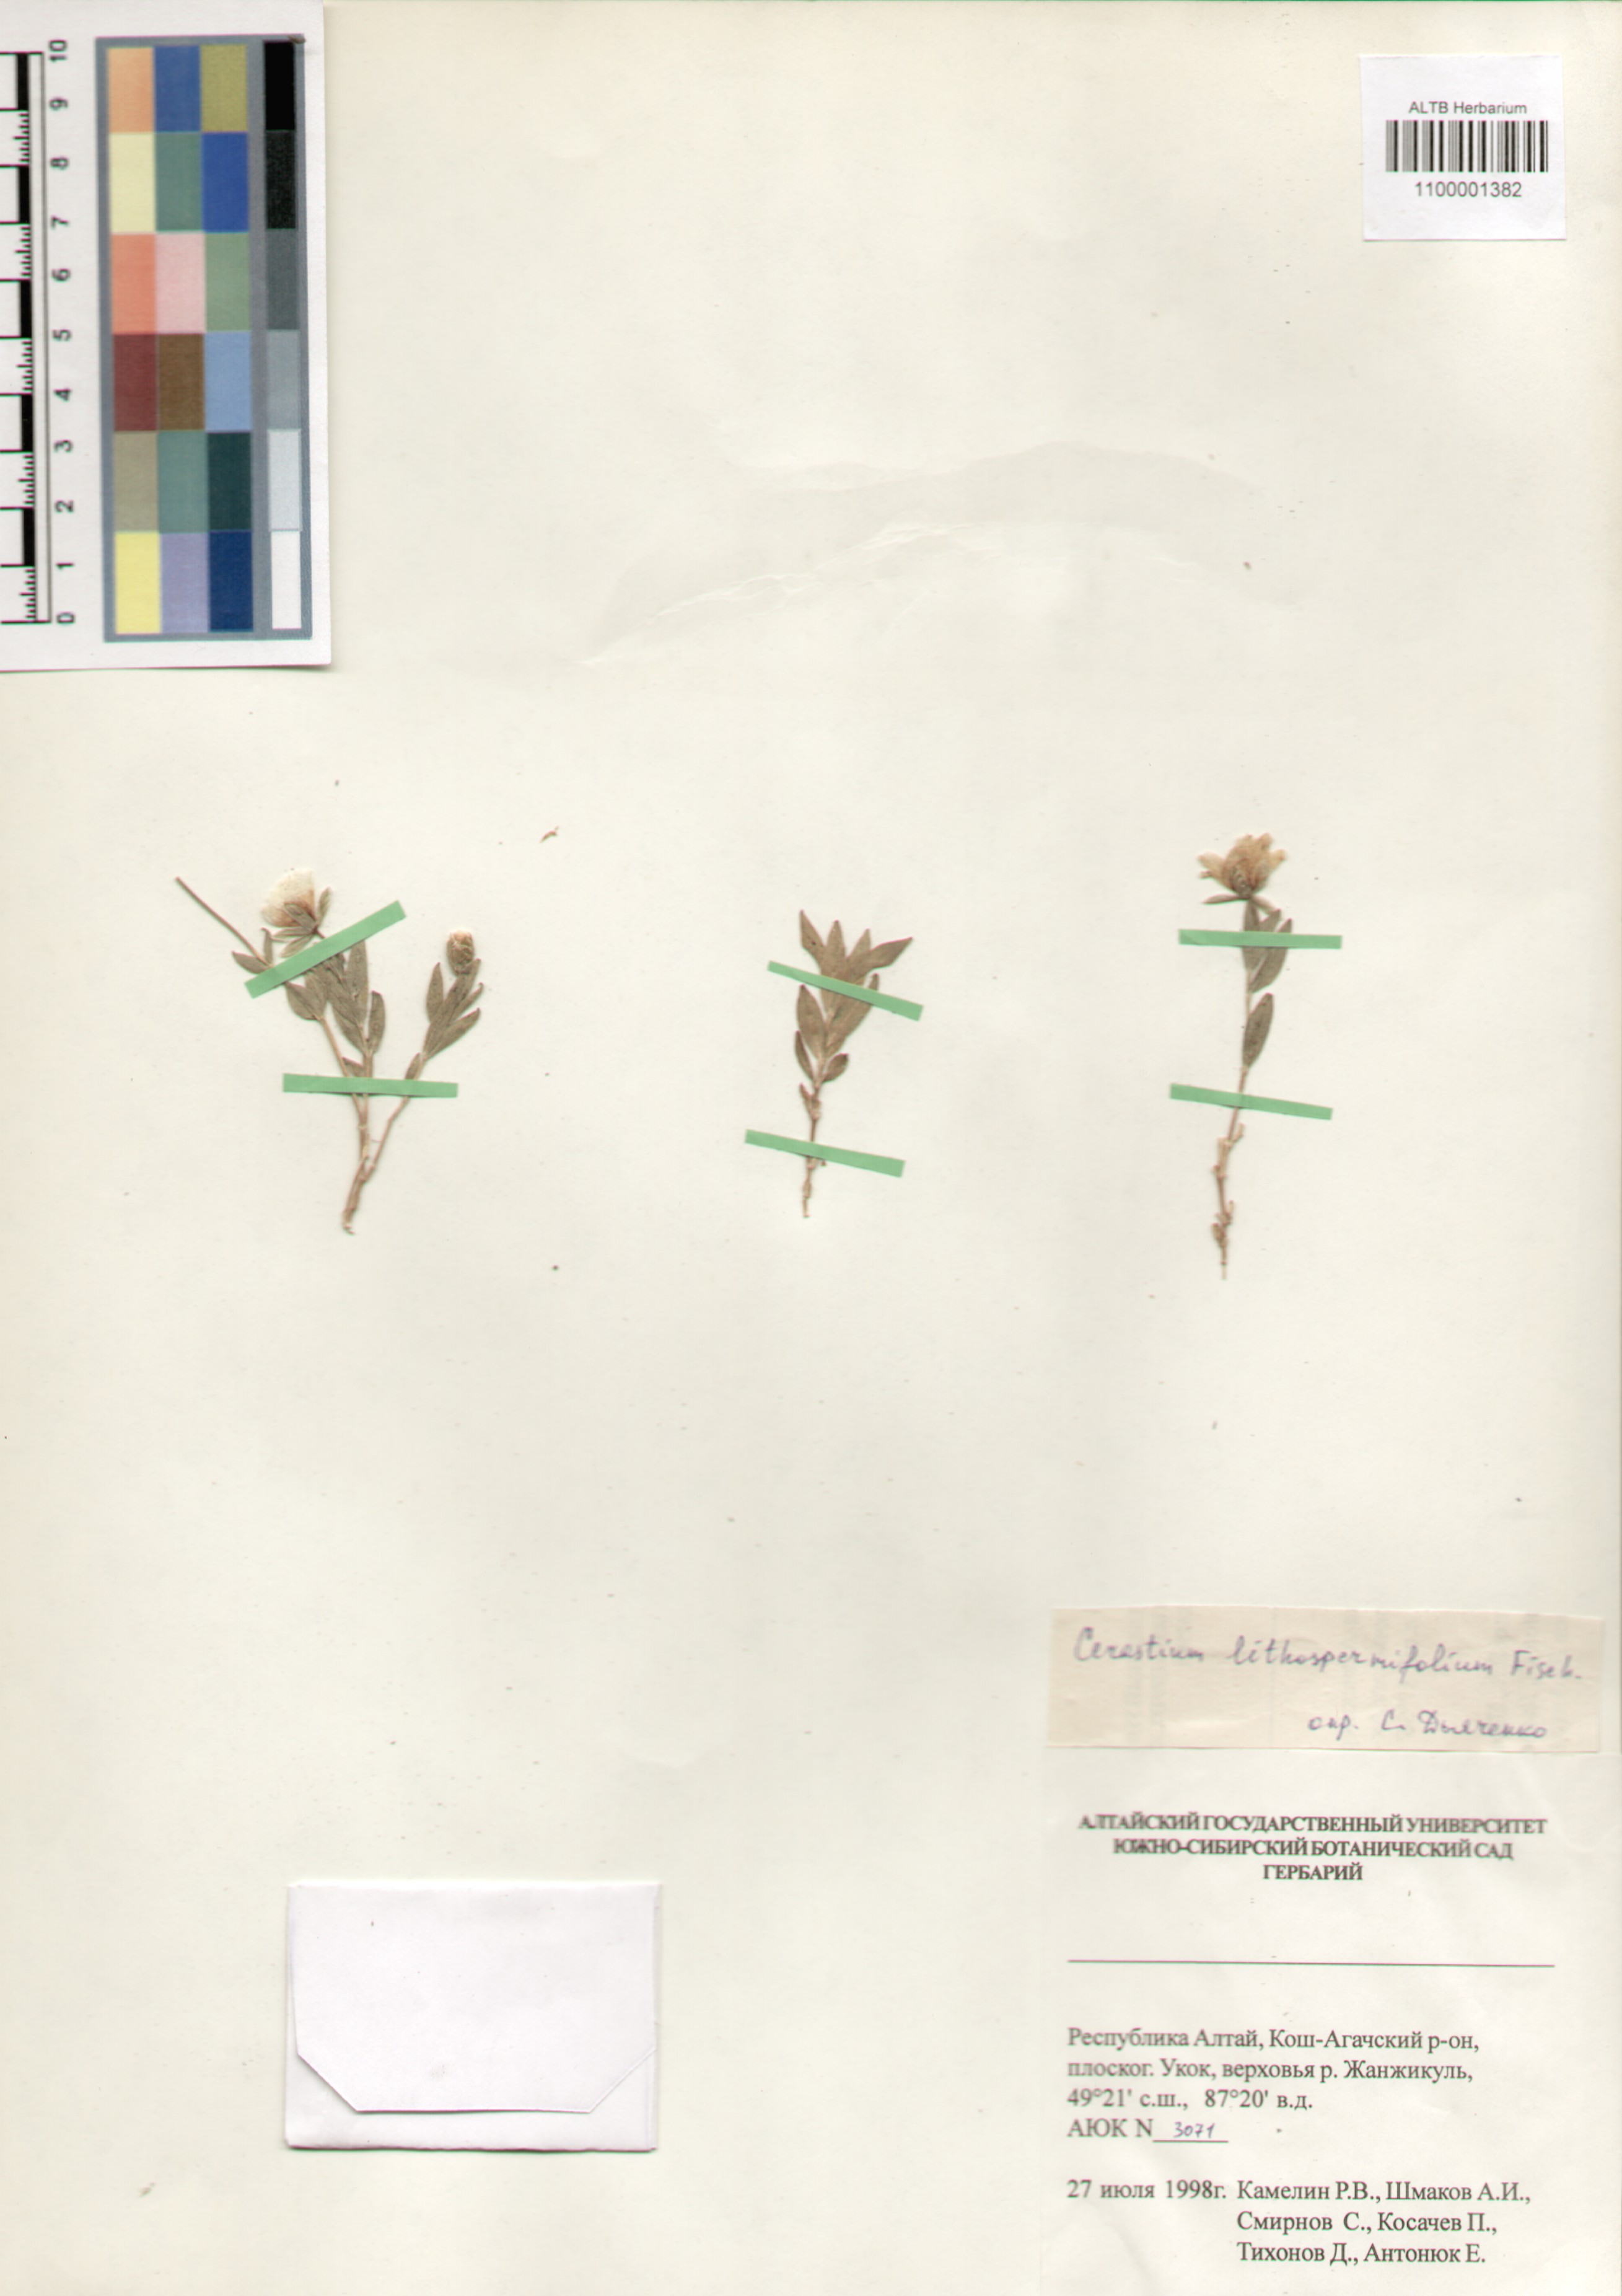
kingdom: Plantae
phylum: Tracheophyta
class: Magnoliopsida
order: Caryophyllales
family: Caryophyllaceae
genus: Cerastium
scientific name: Cerastium pauciflorum
